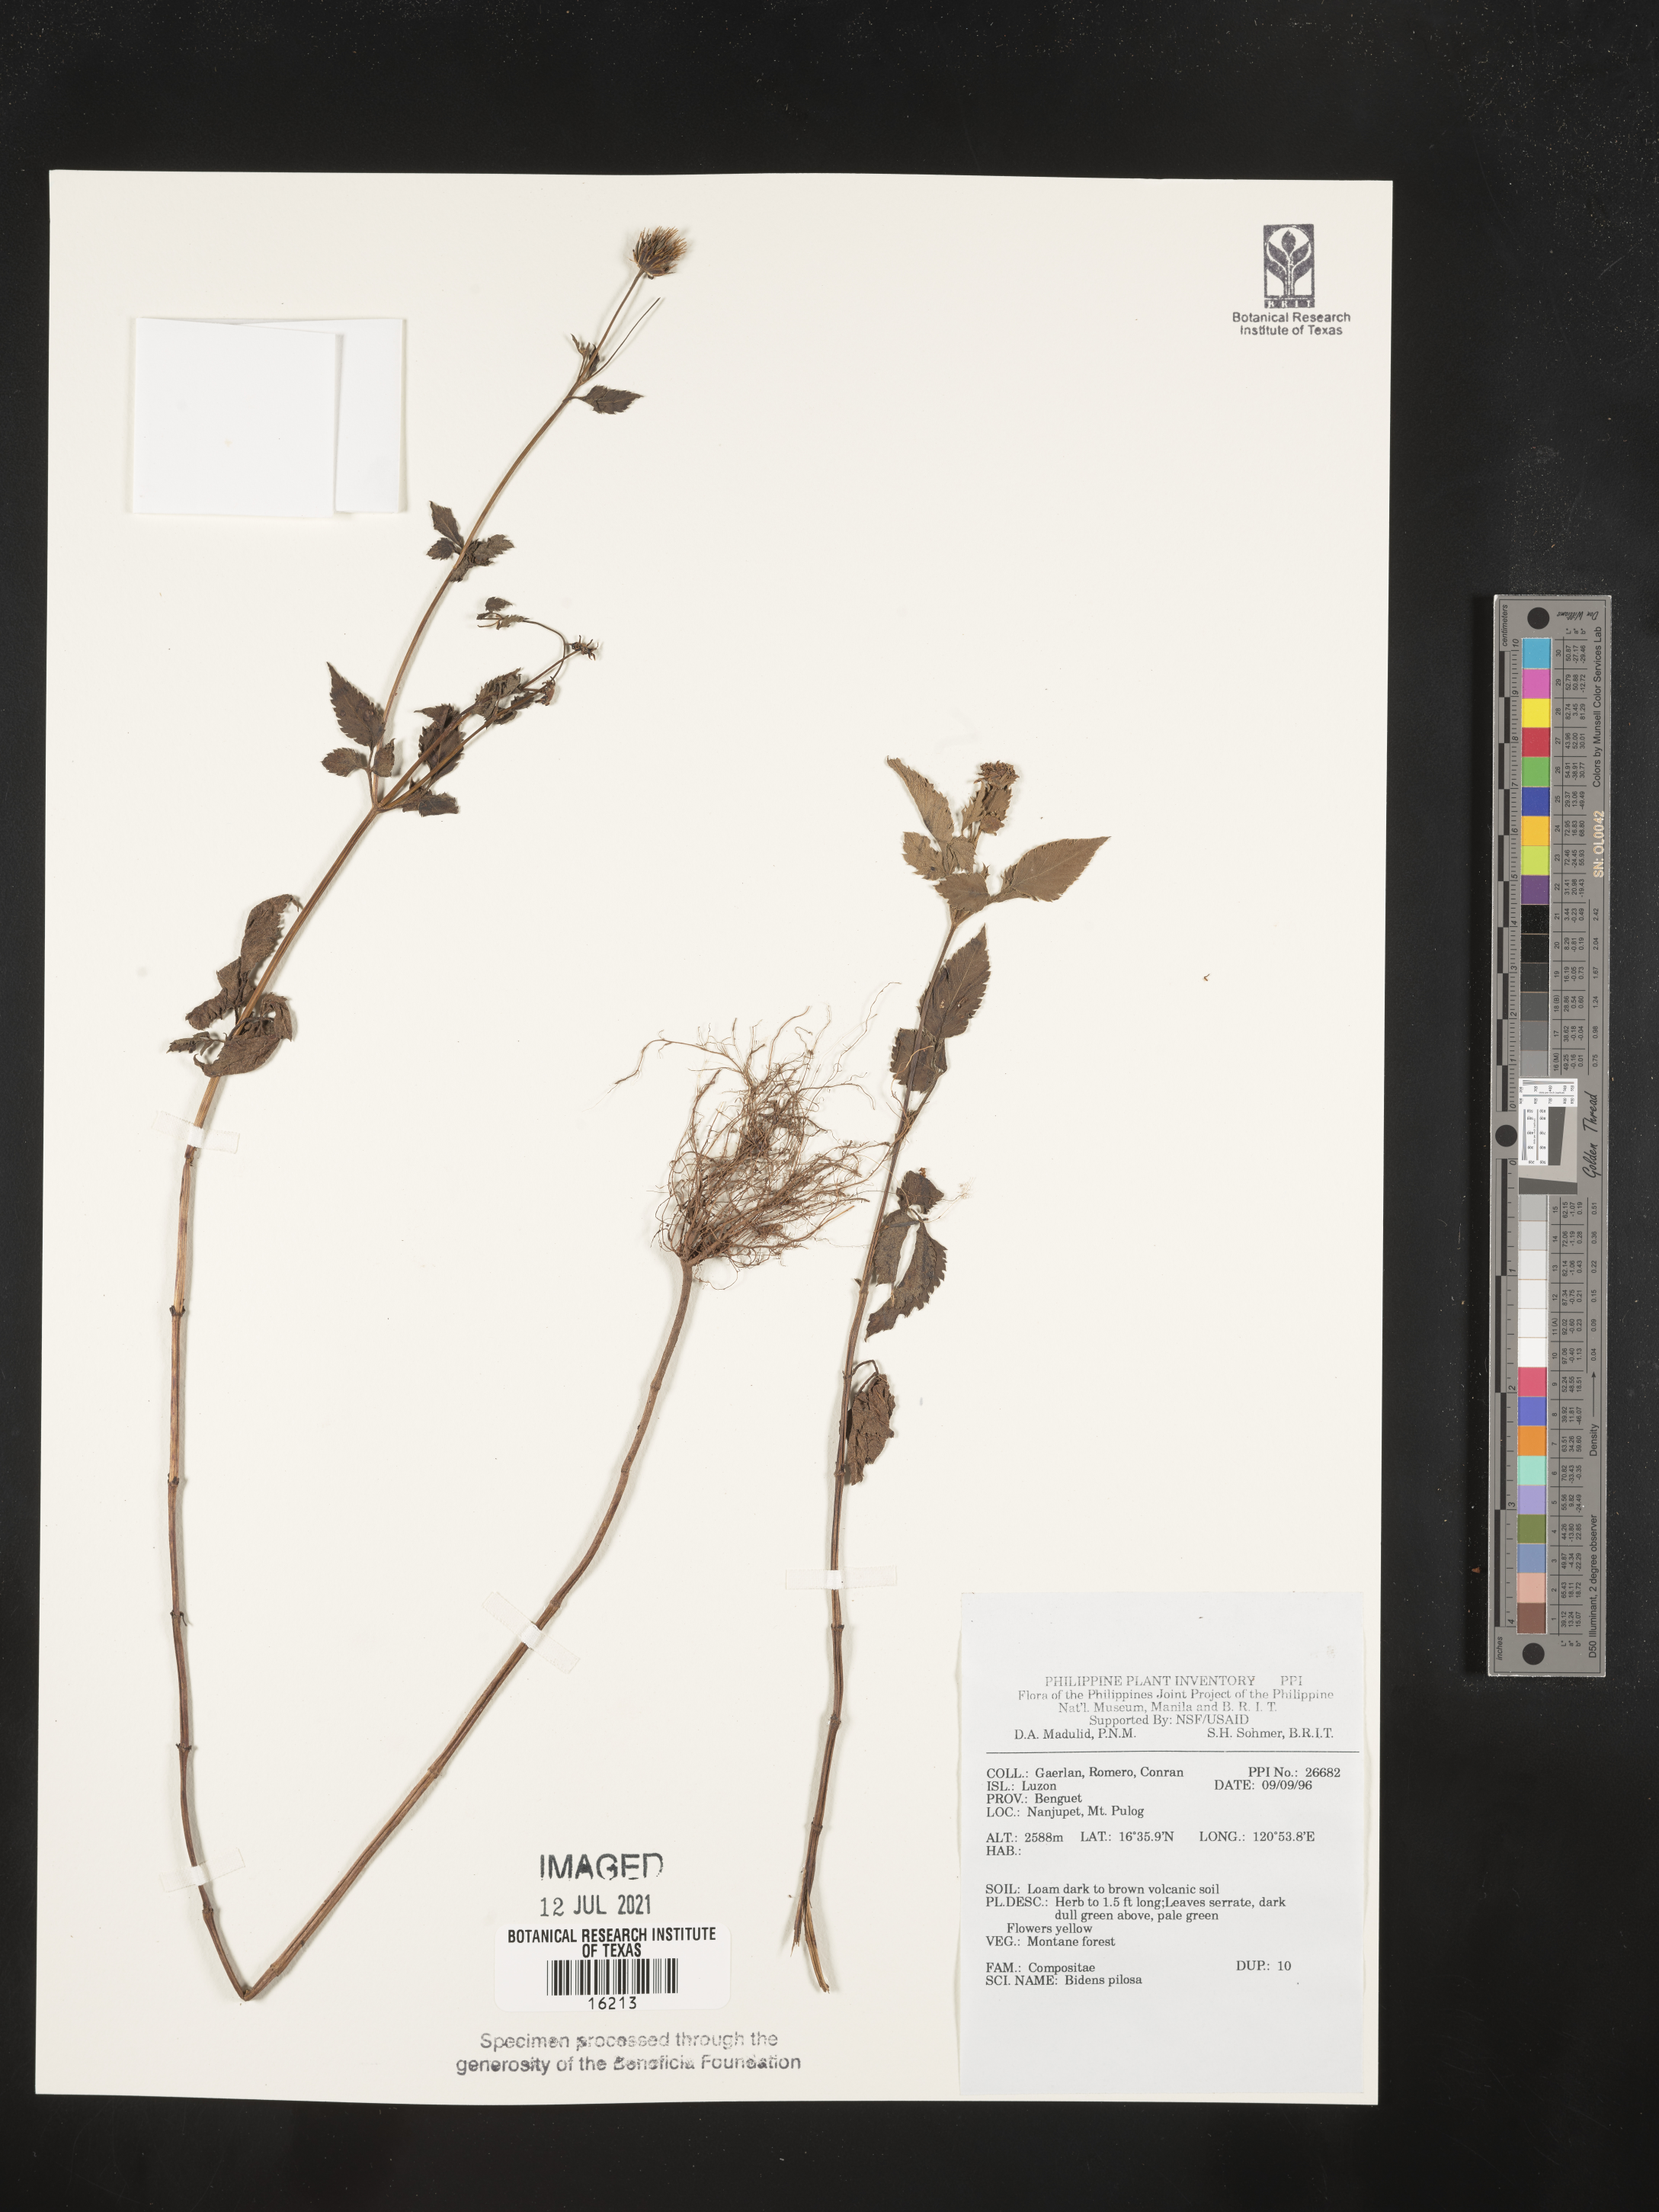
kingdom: Plantae
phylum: Tracheophyta
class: Magnoliopsida
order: Asterales
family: Asteraceae
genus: Bidens
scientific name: Bidens pilosa
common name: Black-jack
